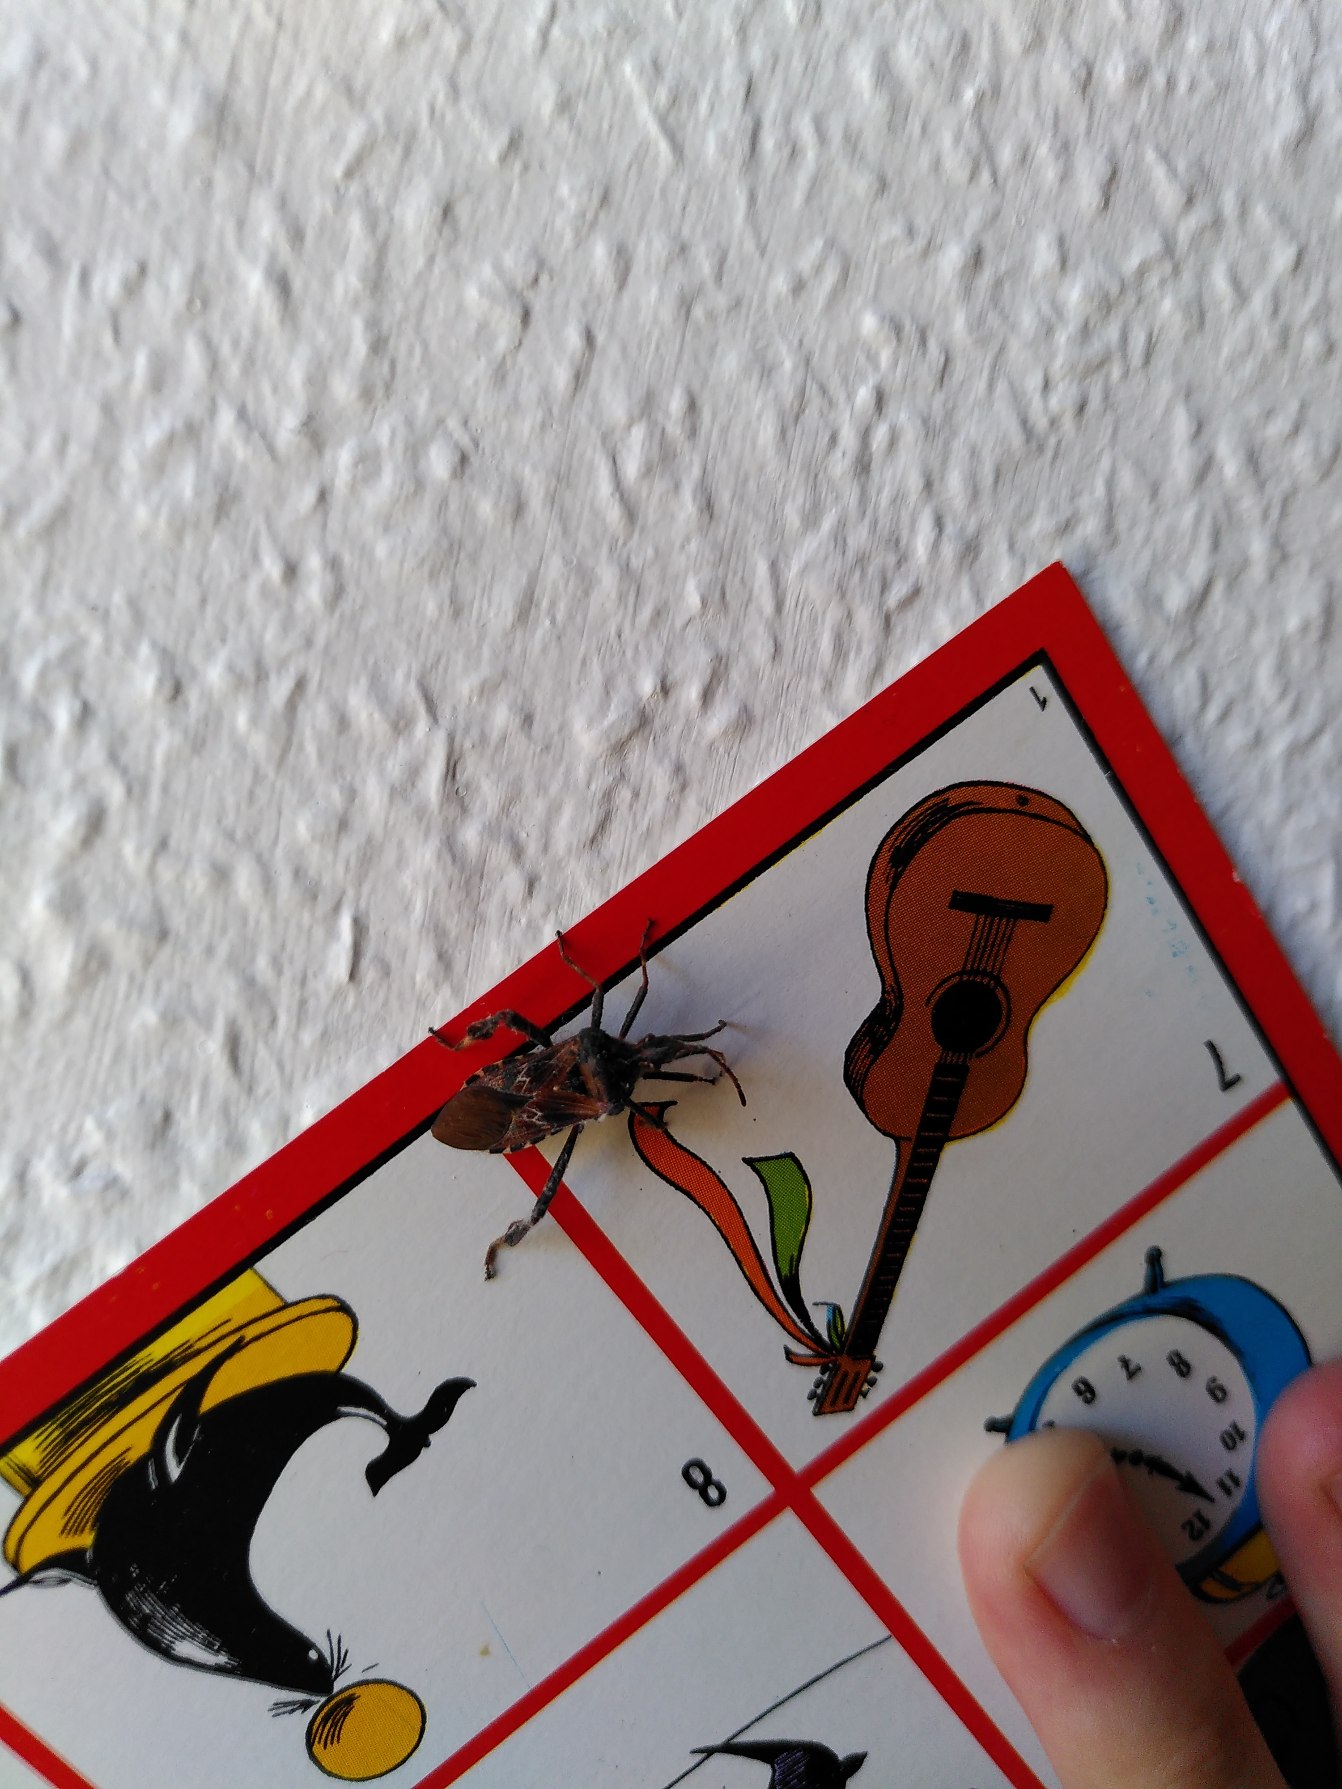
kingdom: Animalia
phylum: Arthropoda
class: Insecta
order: Hemiptera
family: Coreidae
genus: Leptoglossus
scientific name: Leptoglossus occidentalis
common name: Amerikansk fyrretæge
